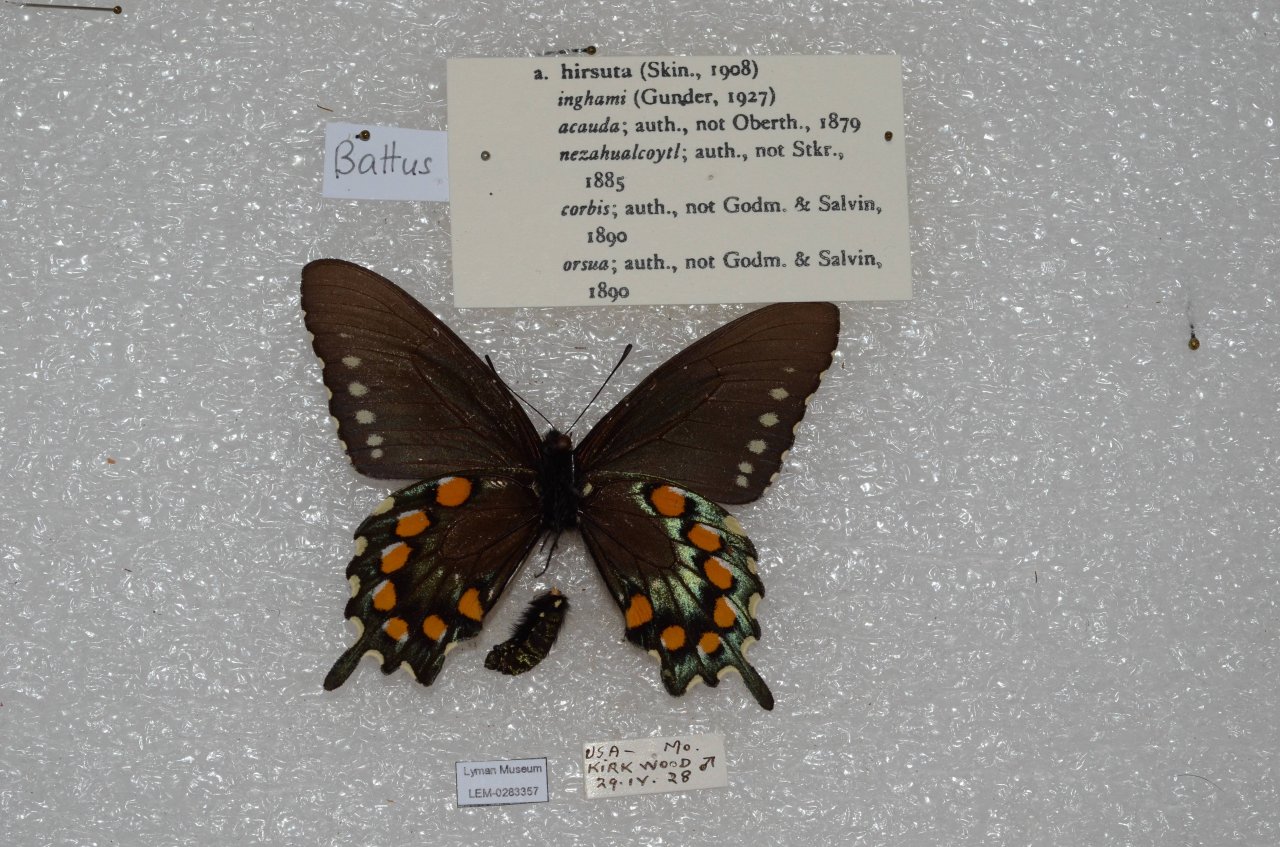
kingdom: Animalia
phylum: Arthropoda
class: Insecta
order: Lepidoptera
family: Papilionidae
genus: Battus
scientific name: Battus philenor
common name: Pipevine Swallowtail
